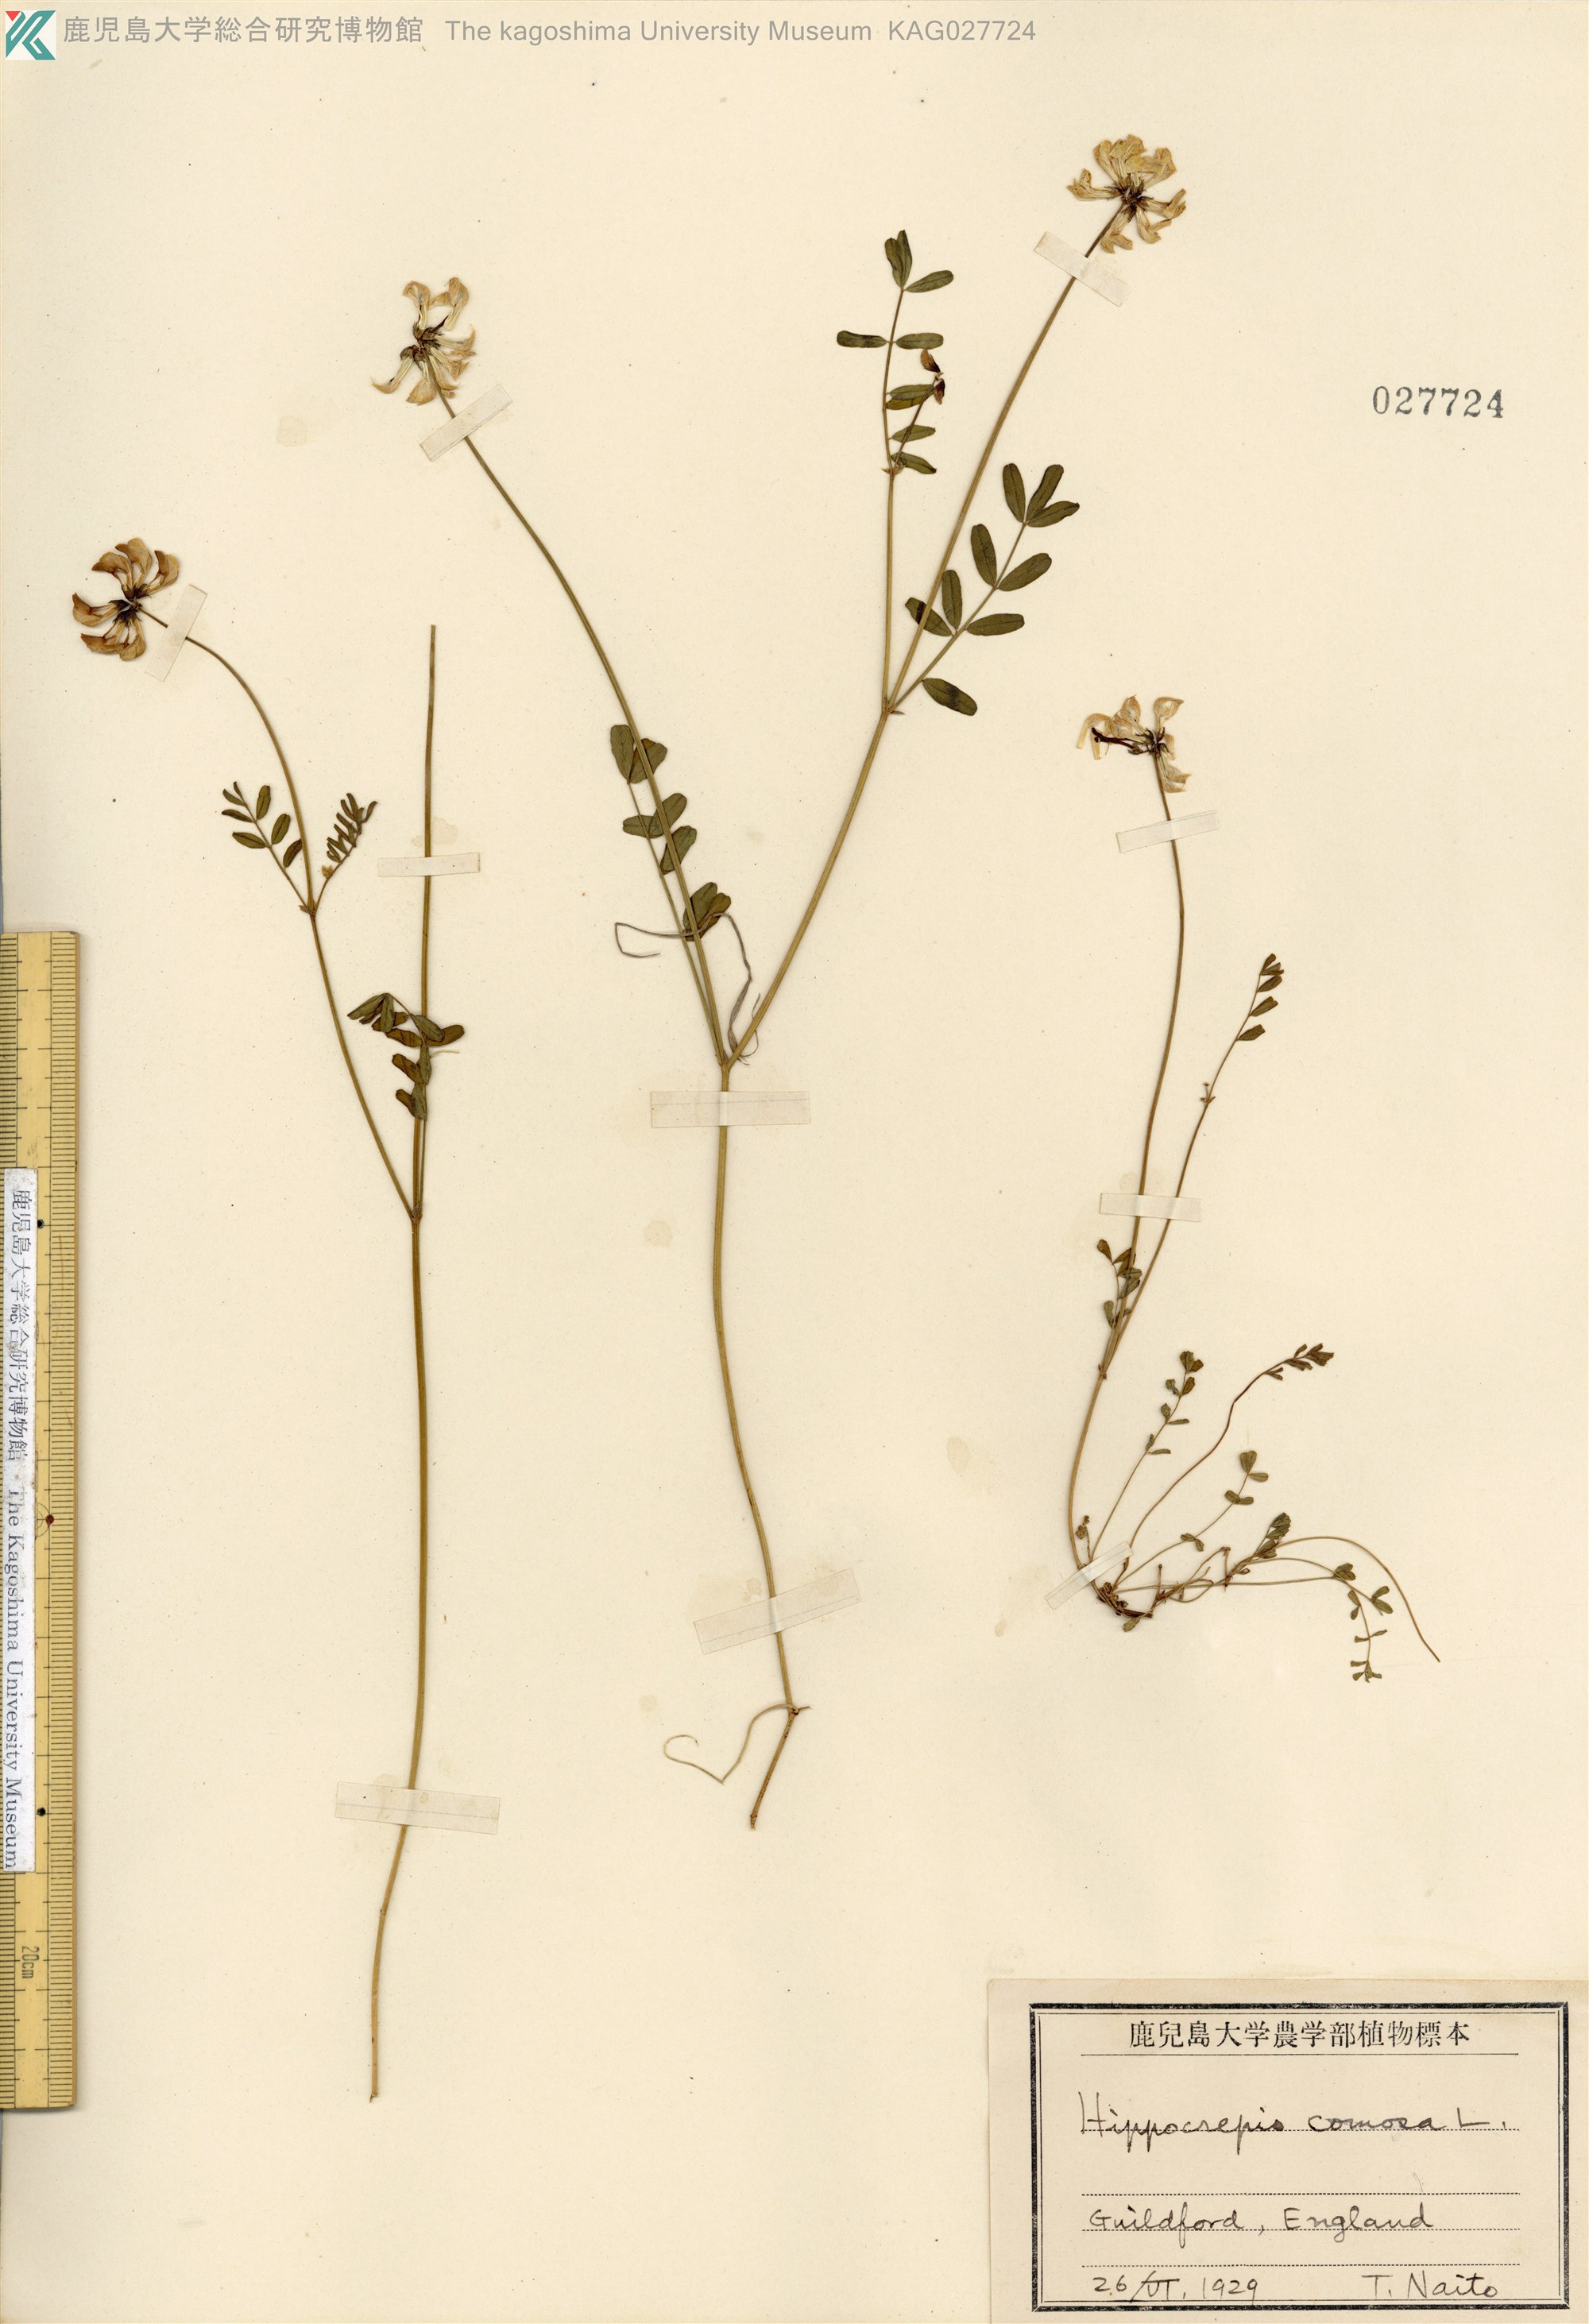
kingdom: Plantae
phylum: Tracheophyta
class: Magnoliopsida
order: Fabales
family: Fabaceae
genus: Hippocrepis
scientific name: Hippocrepis comosa
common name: Horseshoe vetch
